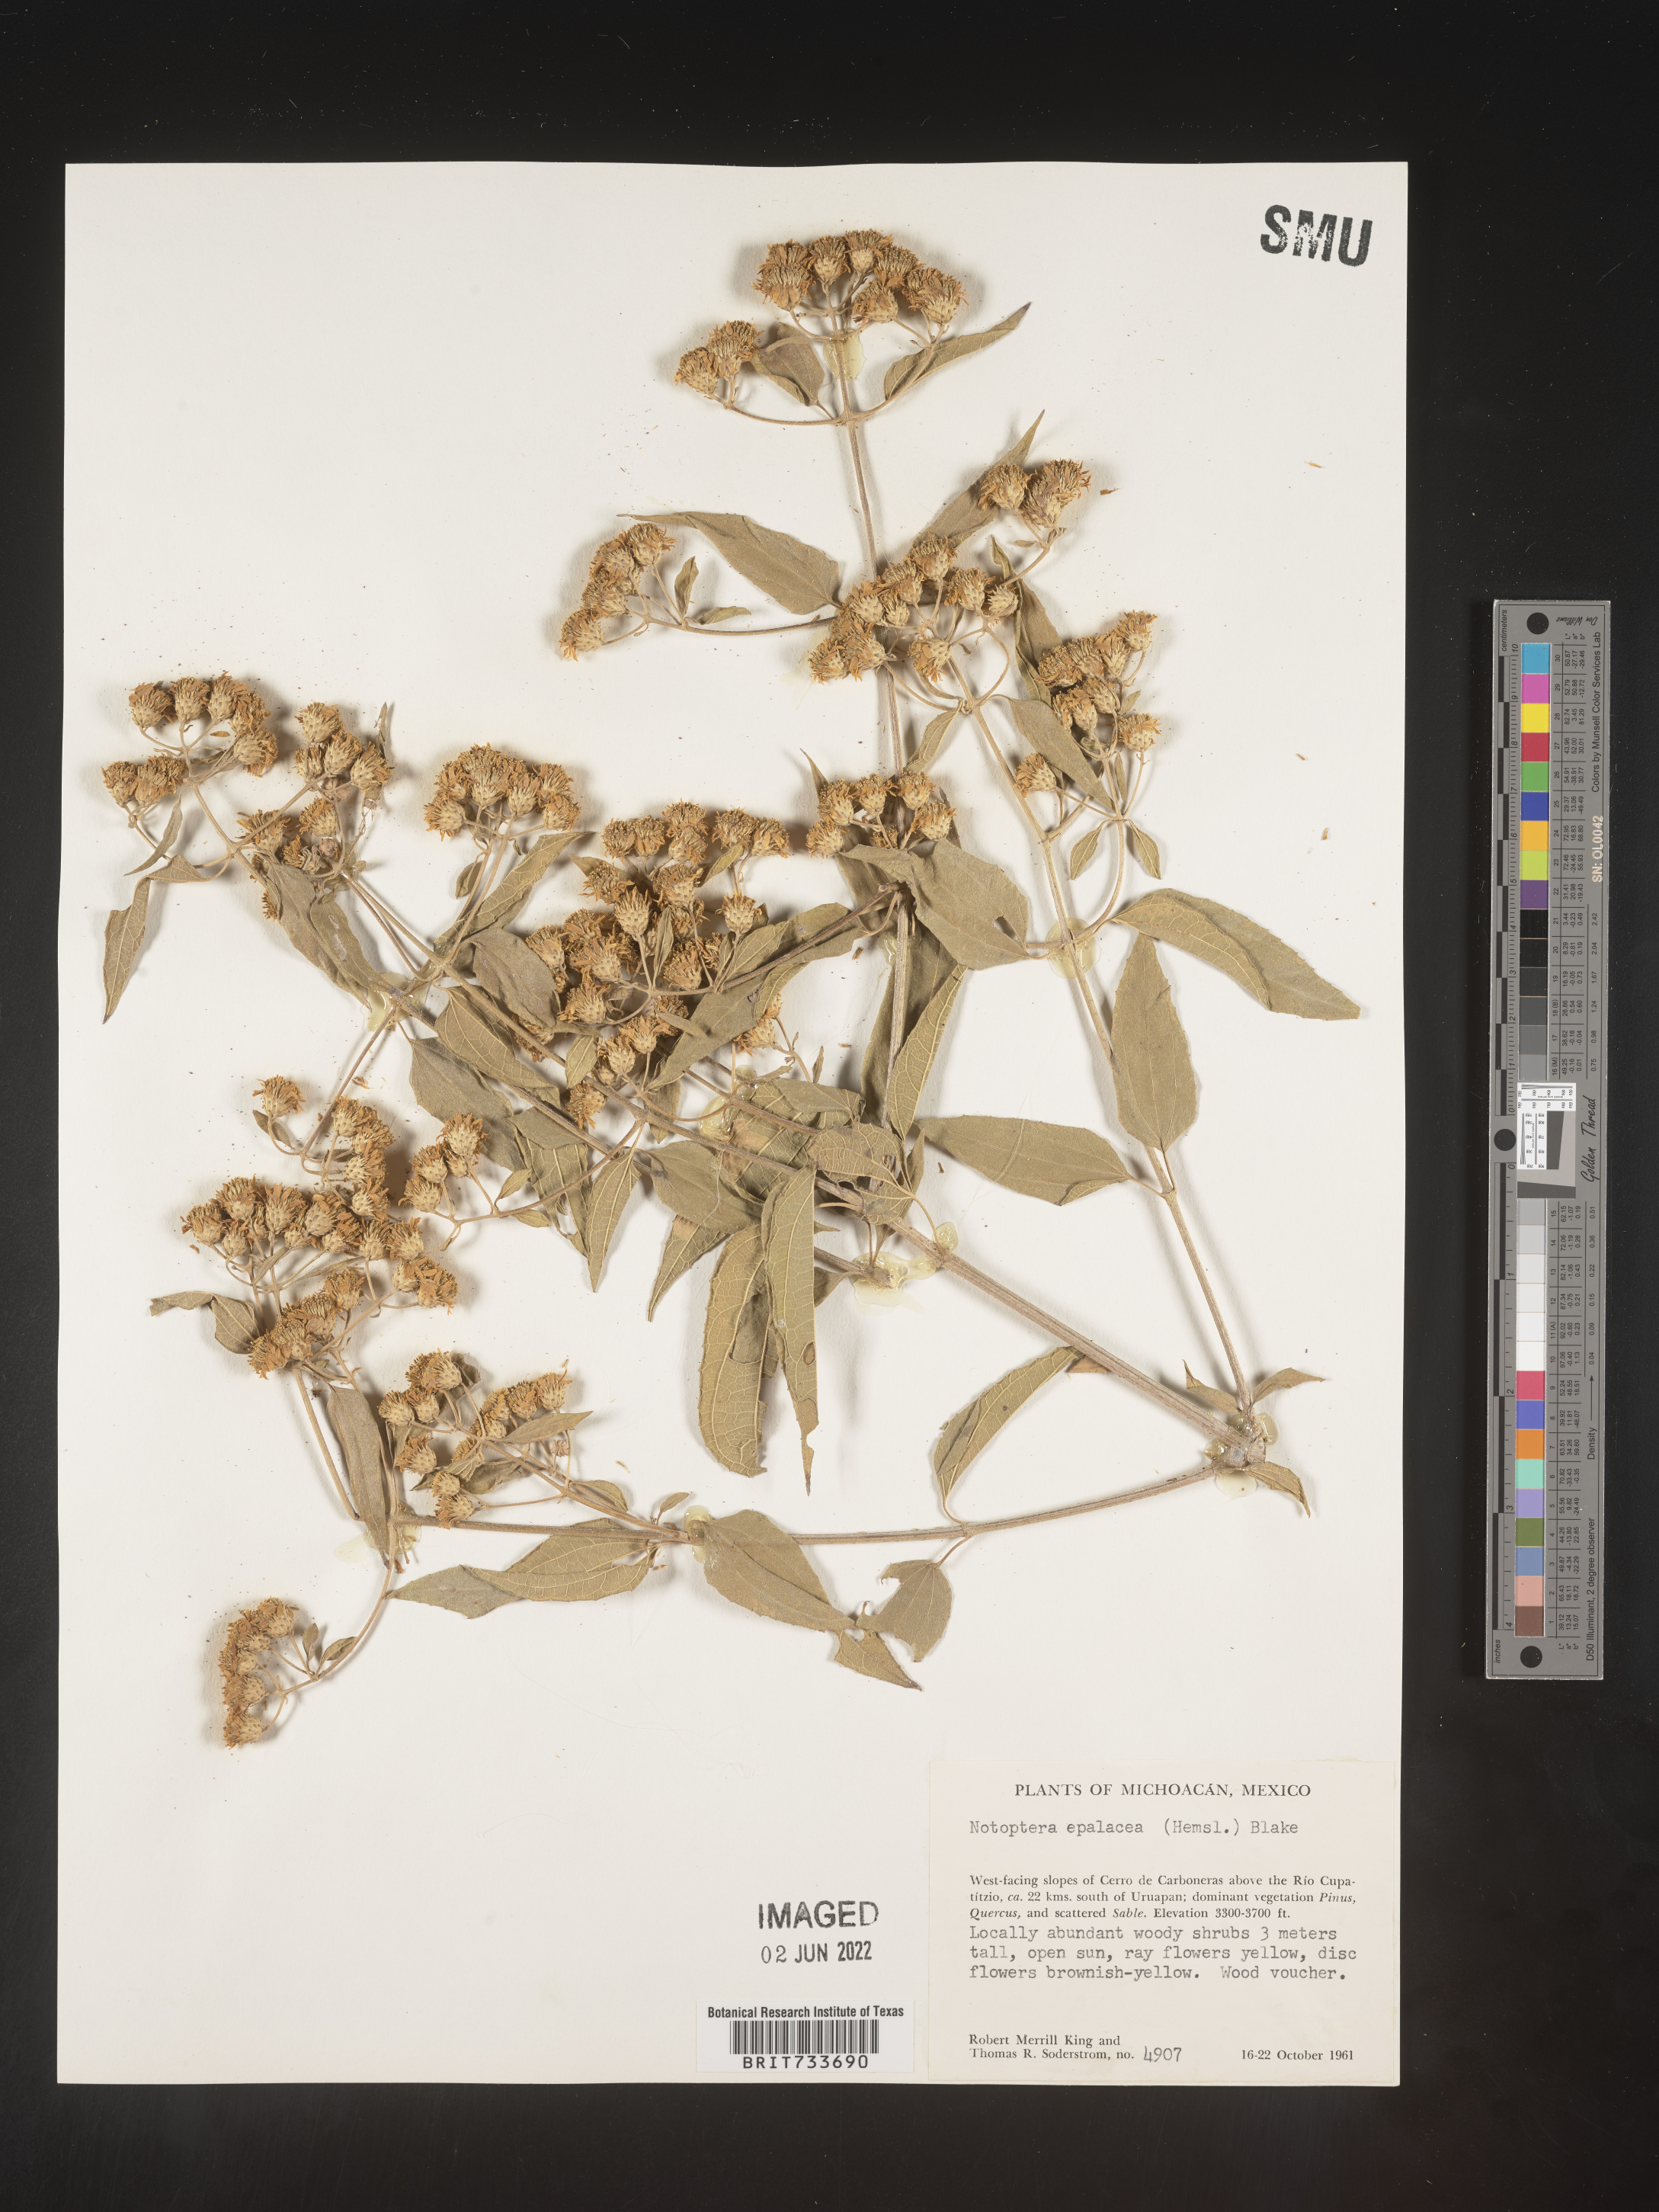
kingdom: Plantae
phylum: Tracheophyta
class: Magnoliopsida
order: Asterales
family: Asteraceae
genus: Otopappus
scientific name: Otopappus
